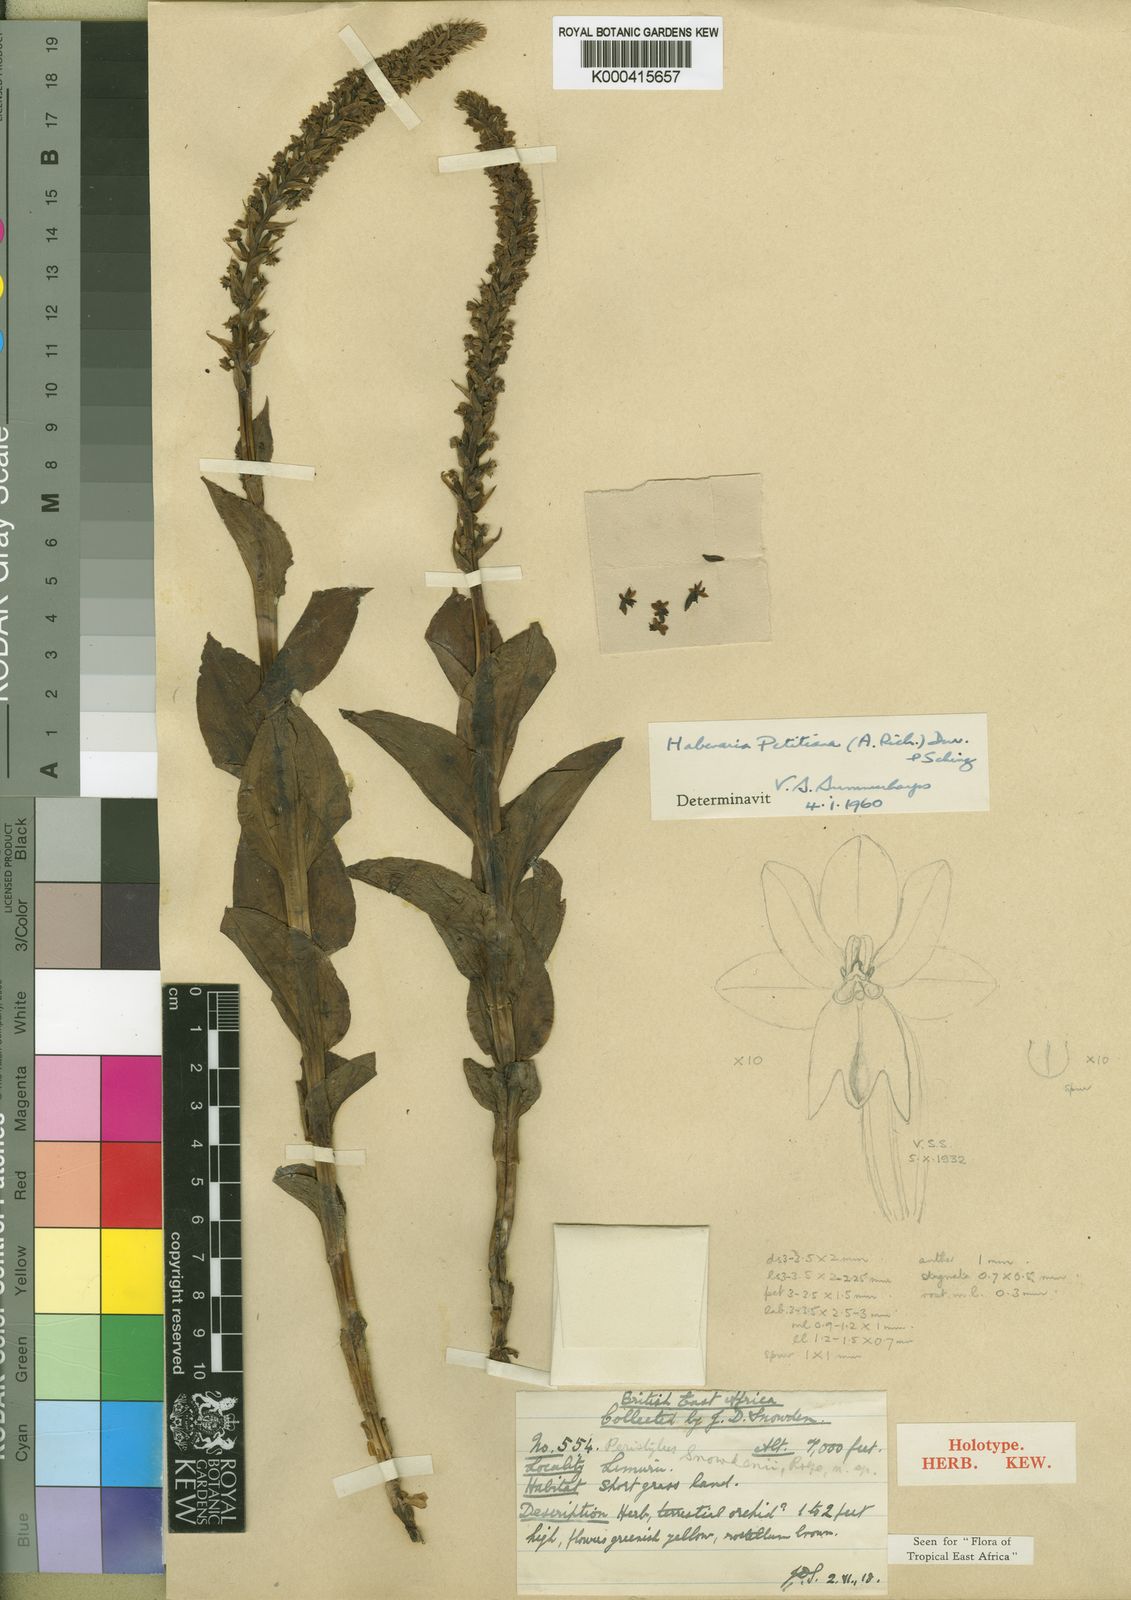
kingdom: Plantae
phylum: Tracheophyta
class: Liliopsida
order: Asparagales
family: Orchidaceae
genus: Habenaria
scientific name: Habenaria petitiana
